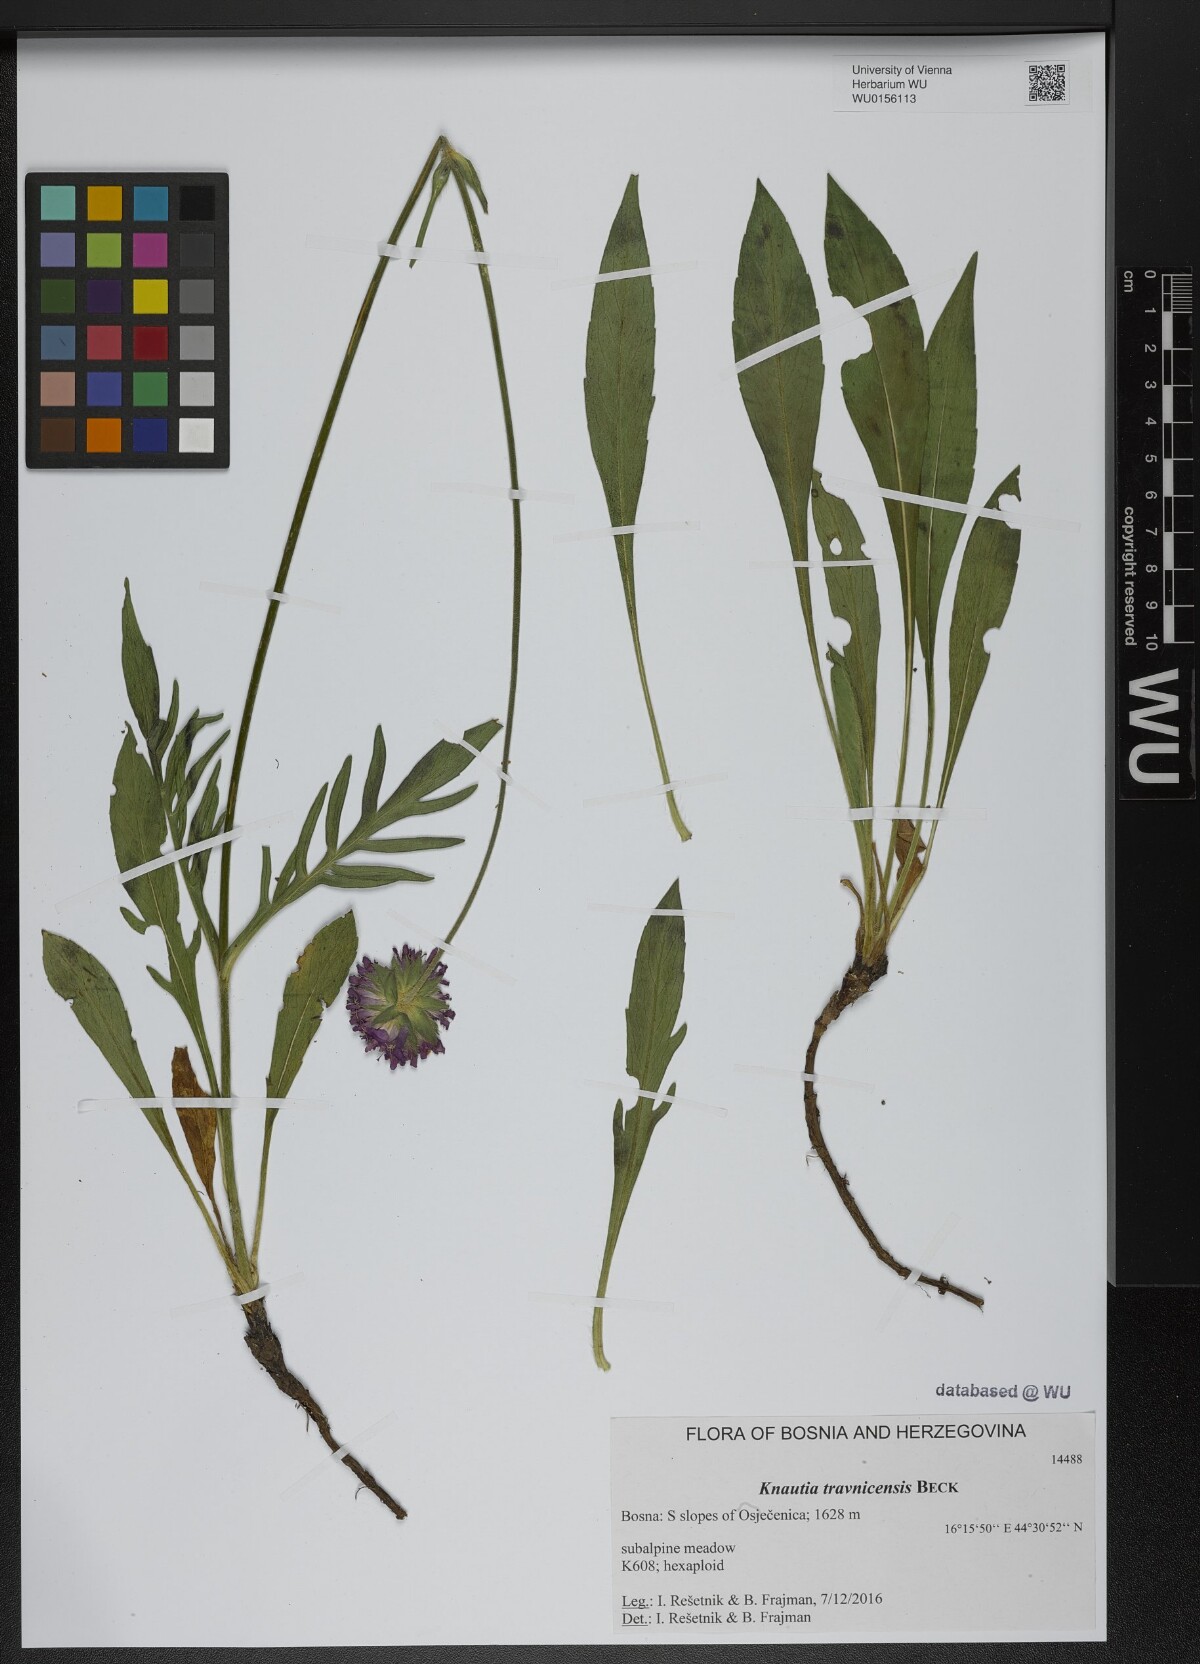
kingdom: Plantae
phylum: Tracheophyta
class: Magnoliopsida
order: Dipsacales
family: Caprifoliaceae
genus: Knautia
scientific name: Knautia travnicensis
